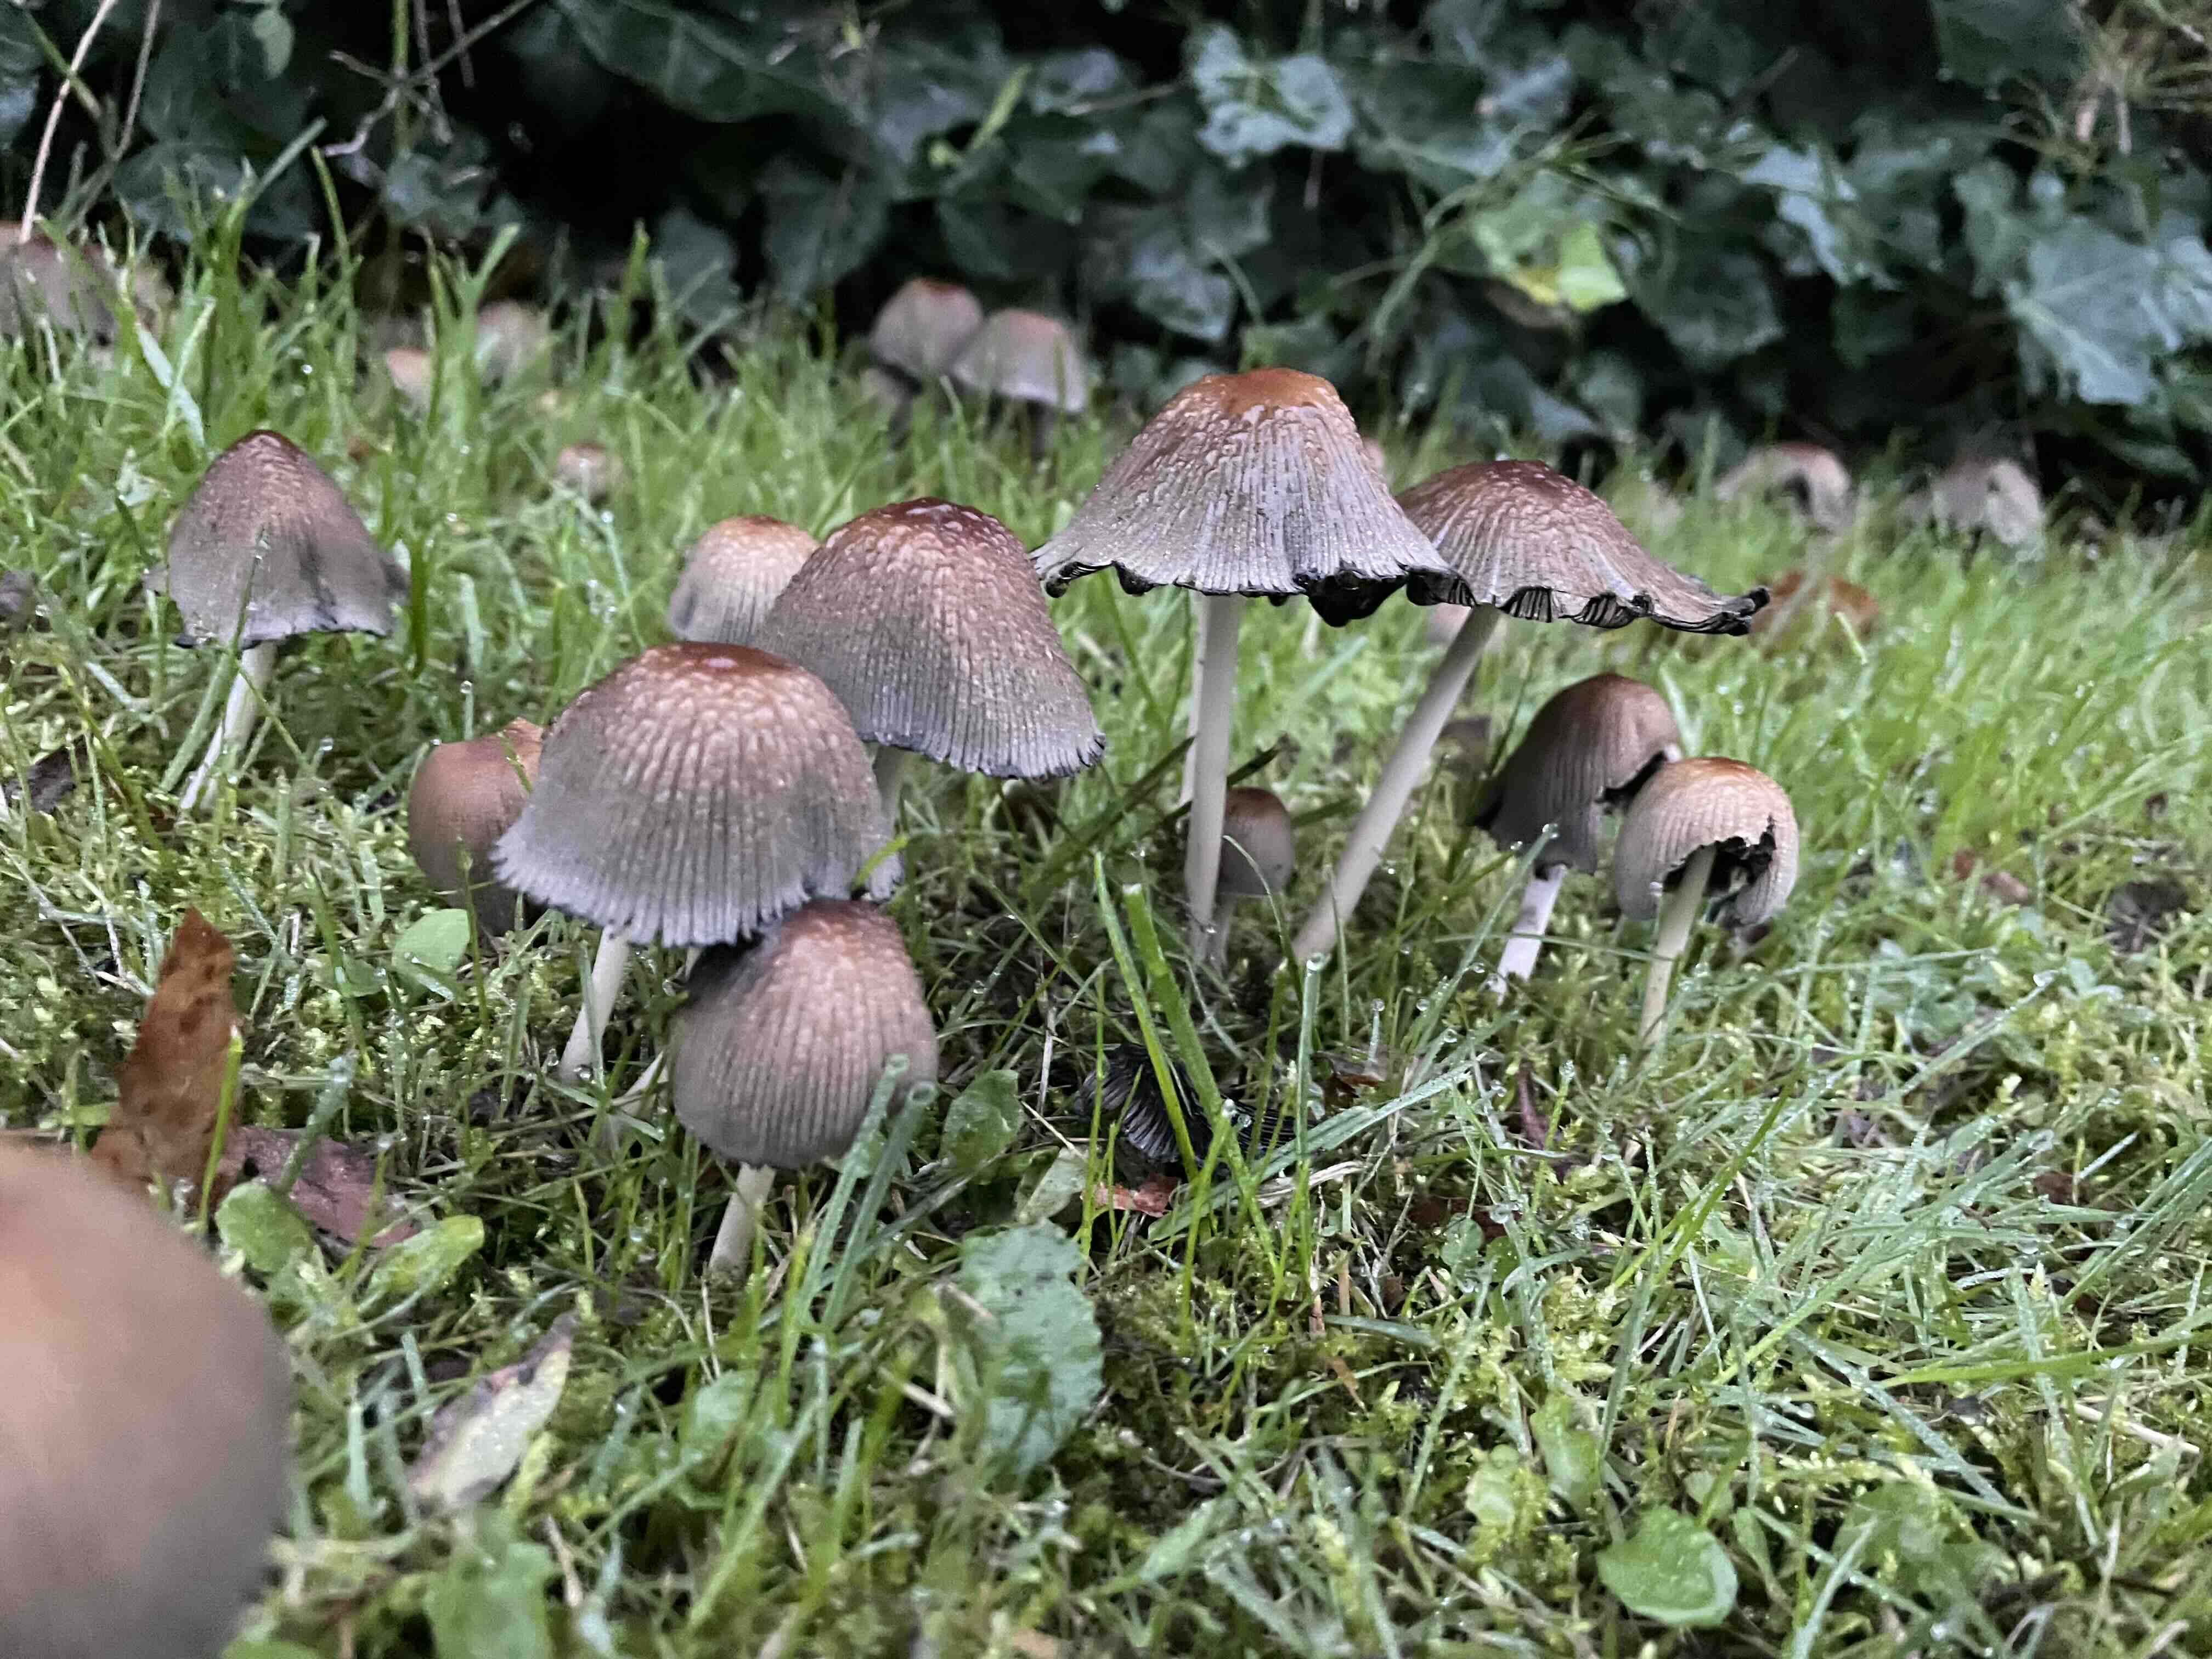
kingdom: Fungi
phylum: Basidiomycota
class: Agaricomycetes
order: Agaricales
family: Psathyrellaceae
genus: Coprinellus
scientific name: Coprinellus
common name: blækhat
